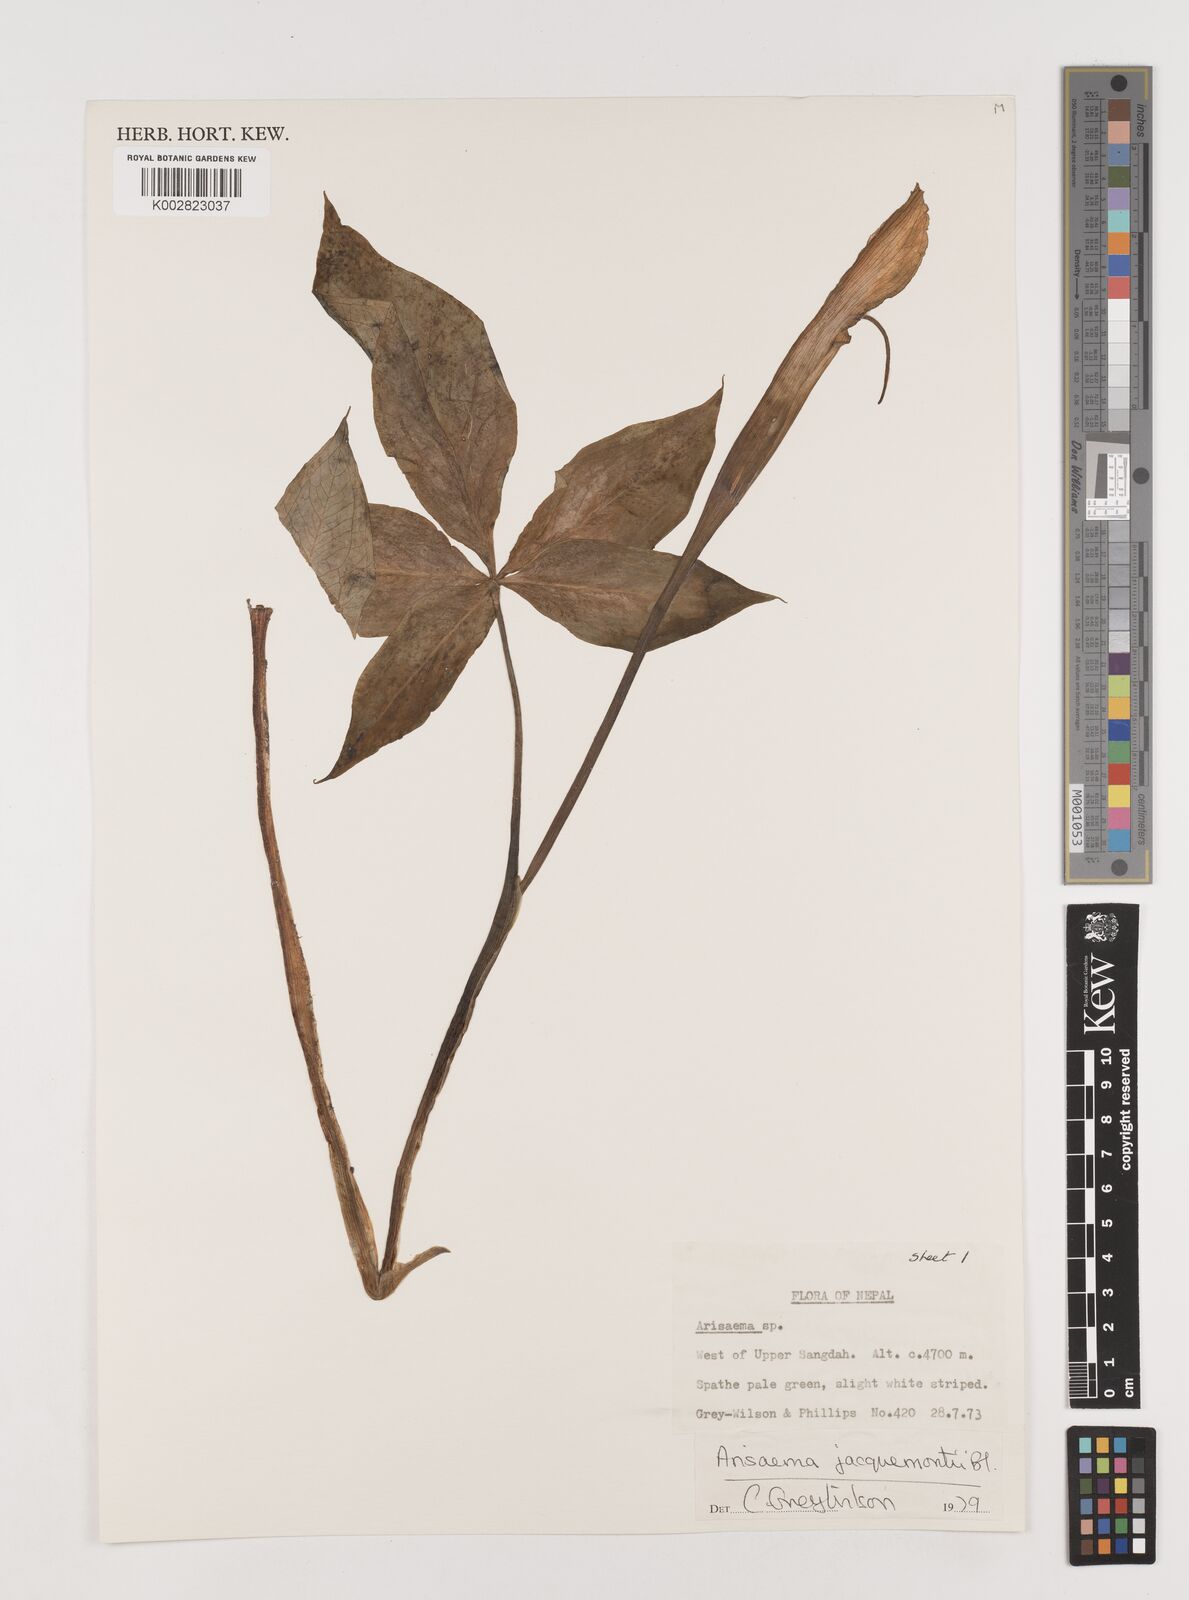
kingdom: Plantae
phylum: Tracheophyta
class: Liliopsida
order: Alismatales
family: Araceae
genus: Arisaema
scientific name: Arisaema jacquemontii
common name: Jacquemont's cobra-lily
